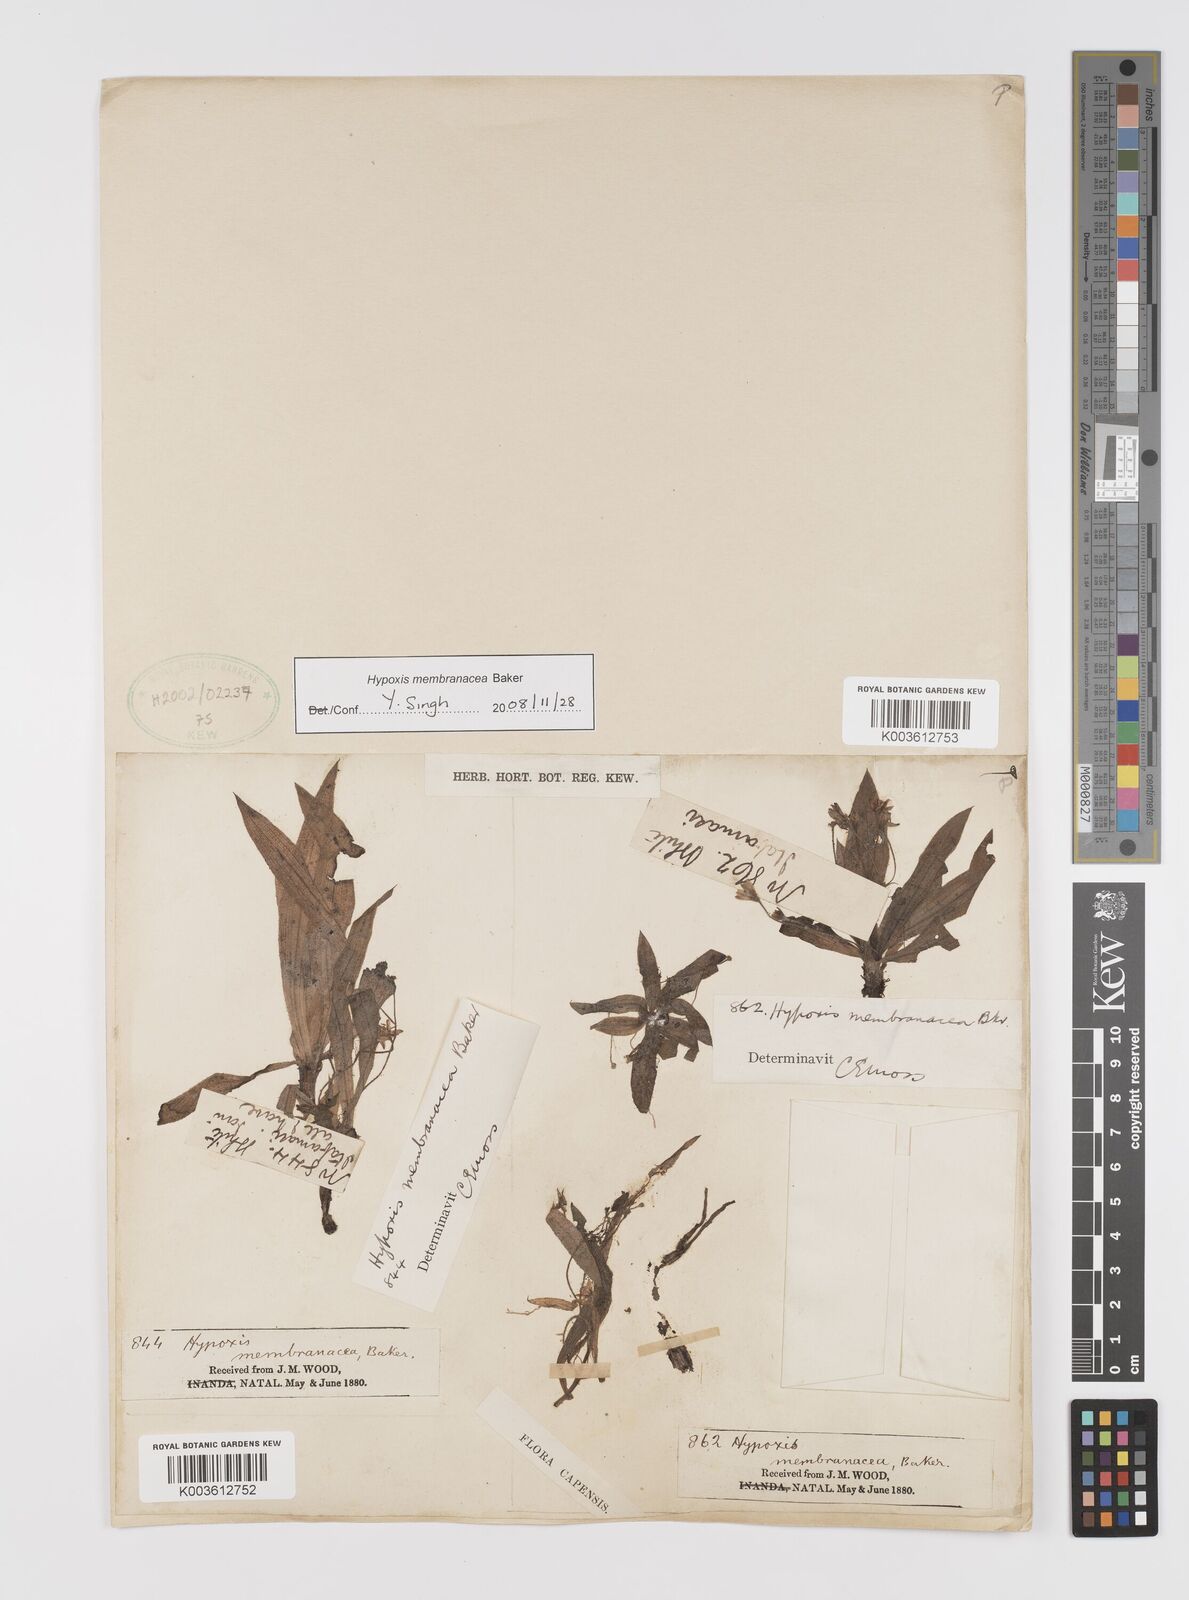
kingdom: Plantae
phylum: Tracheophyta
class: Liliopsida
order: Asparagales
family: Hypoxidaceae
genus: Hypoxis
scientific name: Hypoxis membranacea
